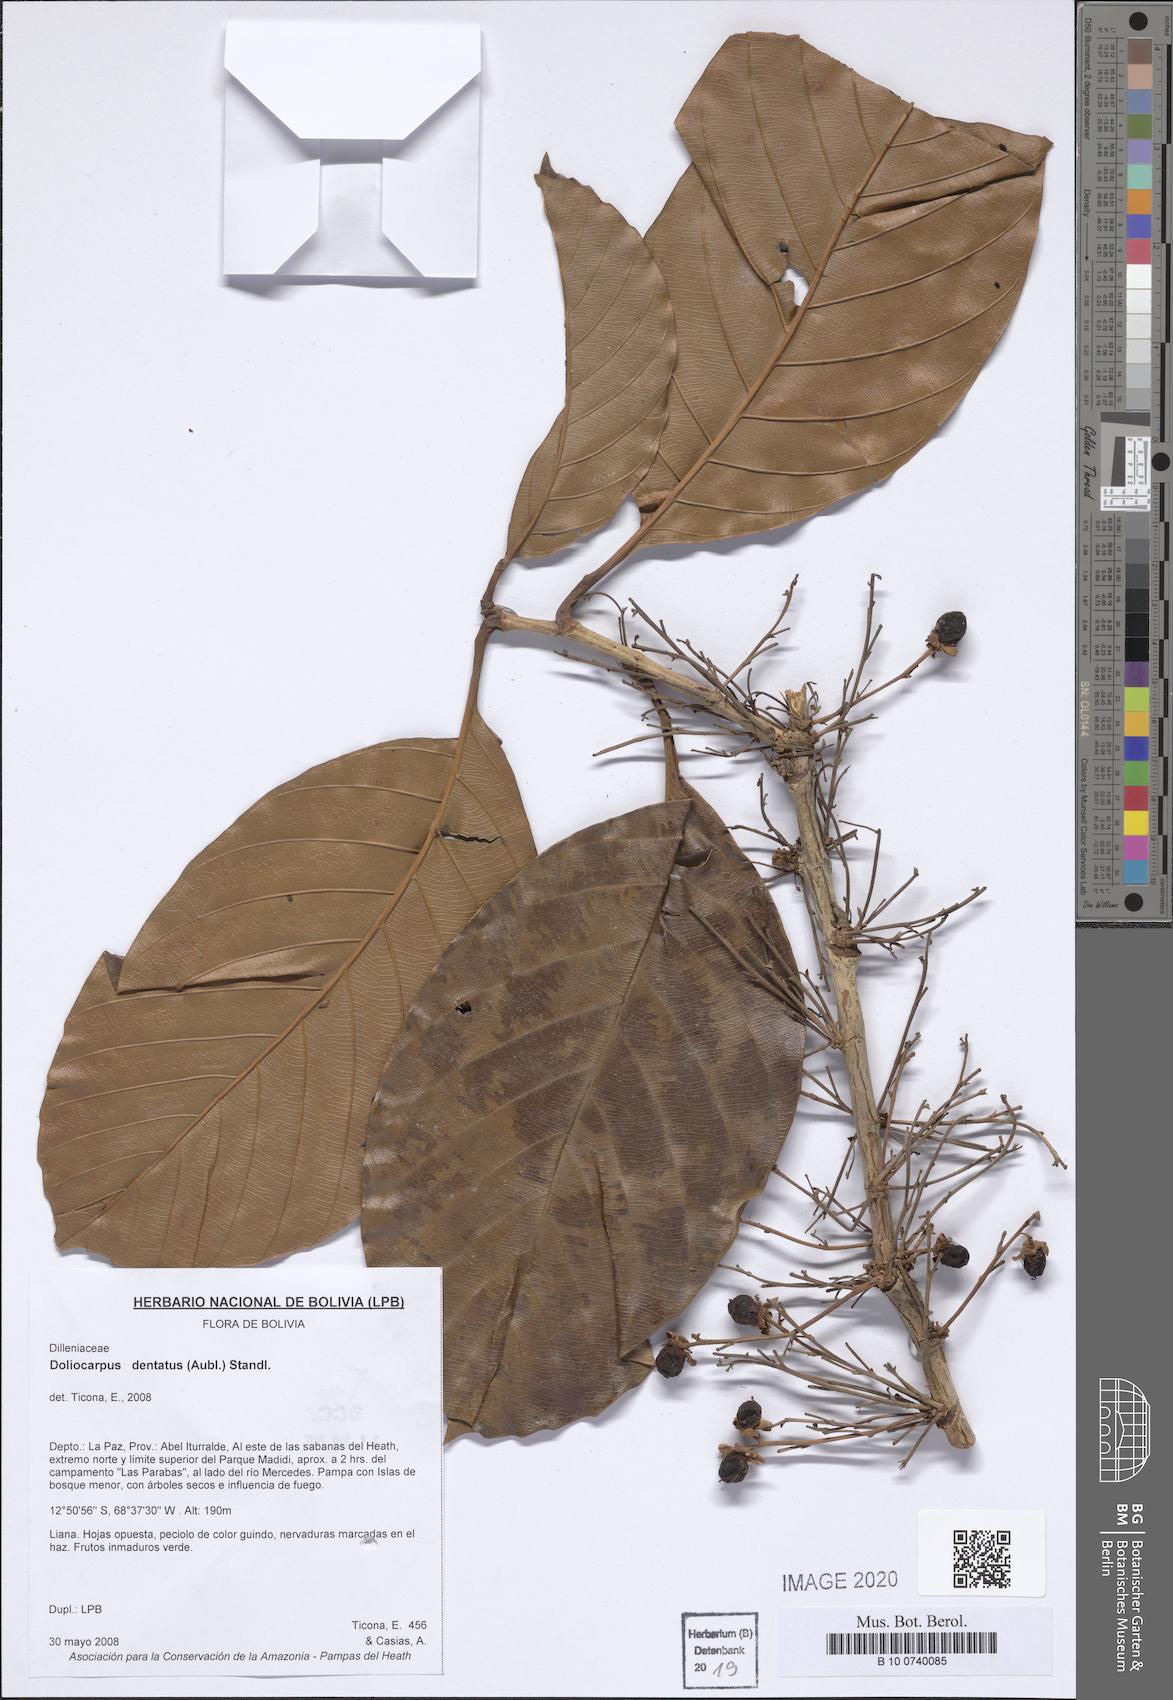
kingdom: Plantae
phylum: Tracheophyta
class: Magnoliopsida
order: Dilleniales
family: Dilleniaceae
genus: Doliocarpus
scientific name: Doliocarpus dentatus
